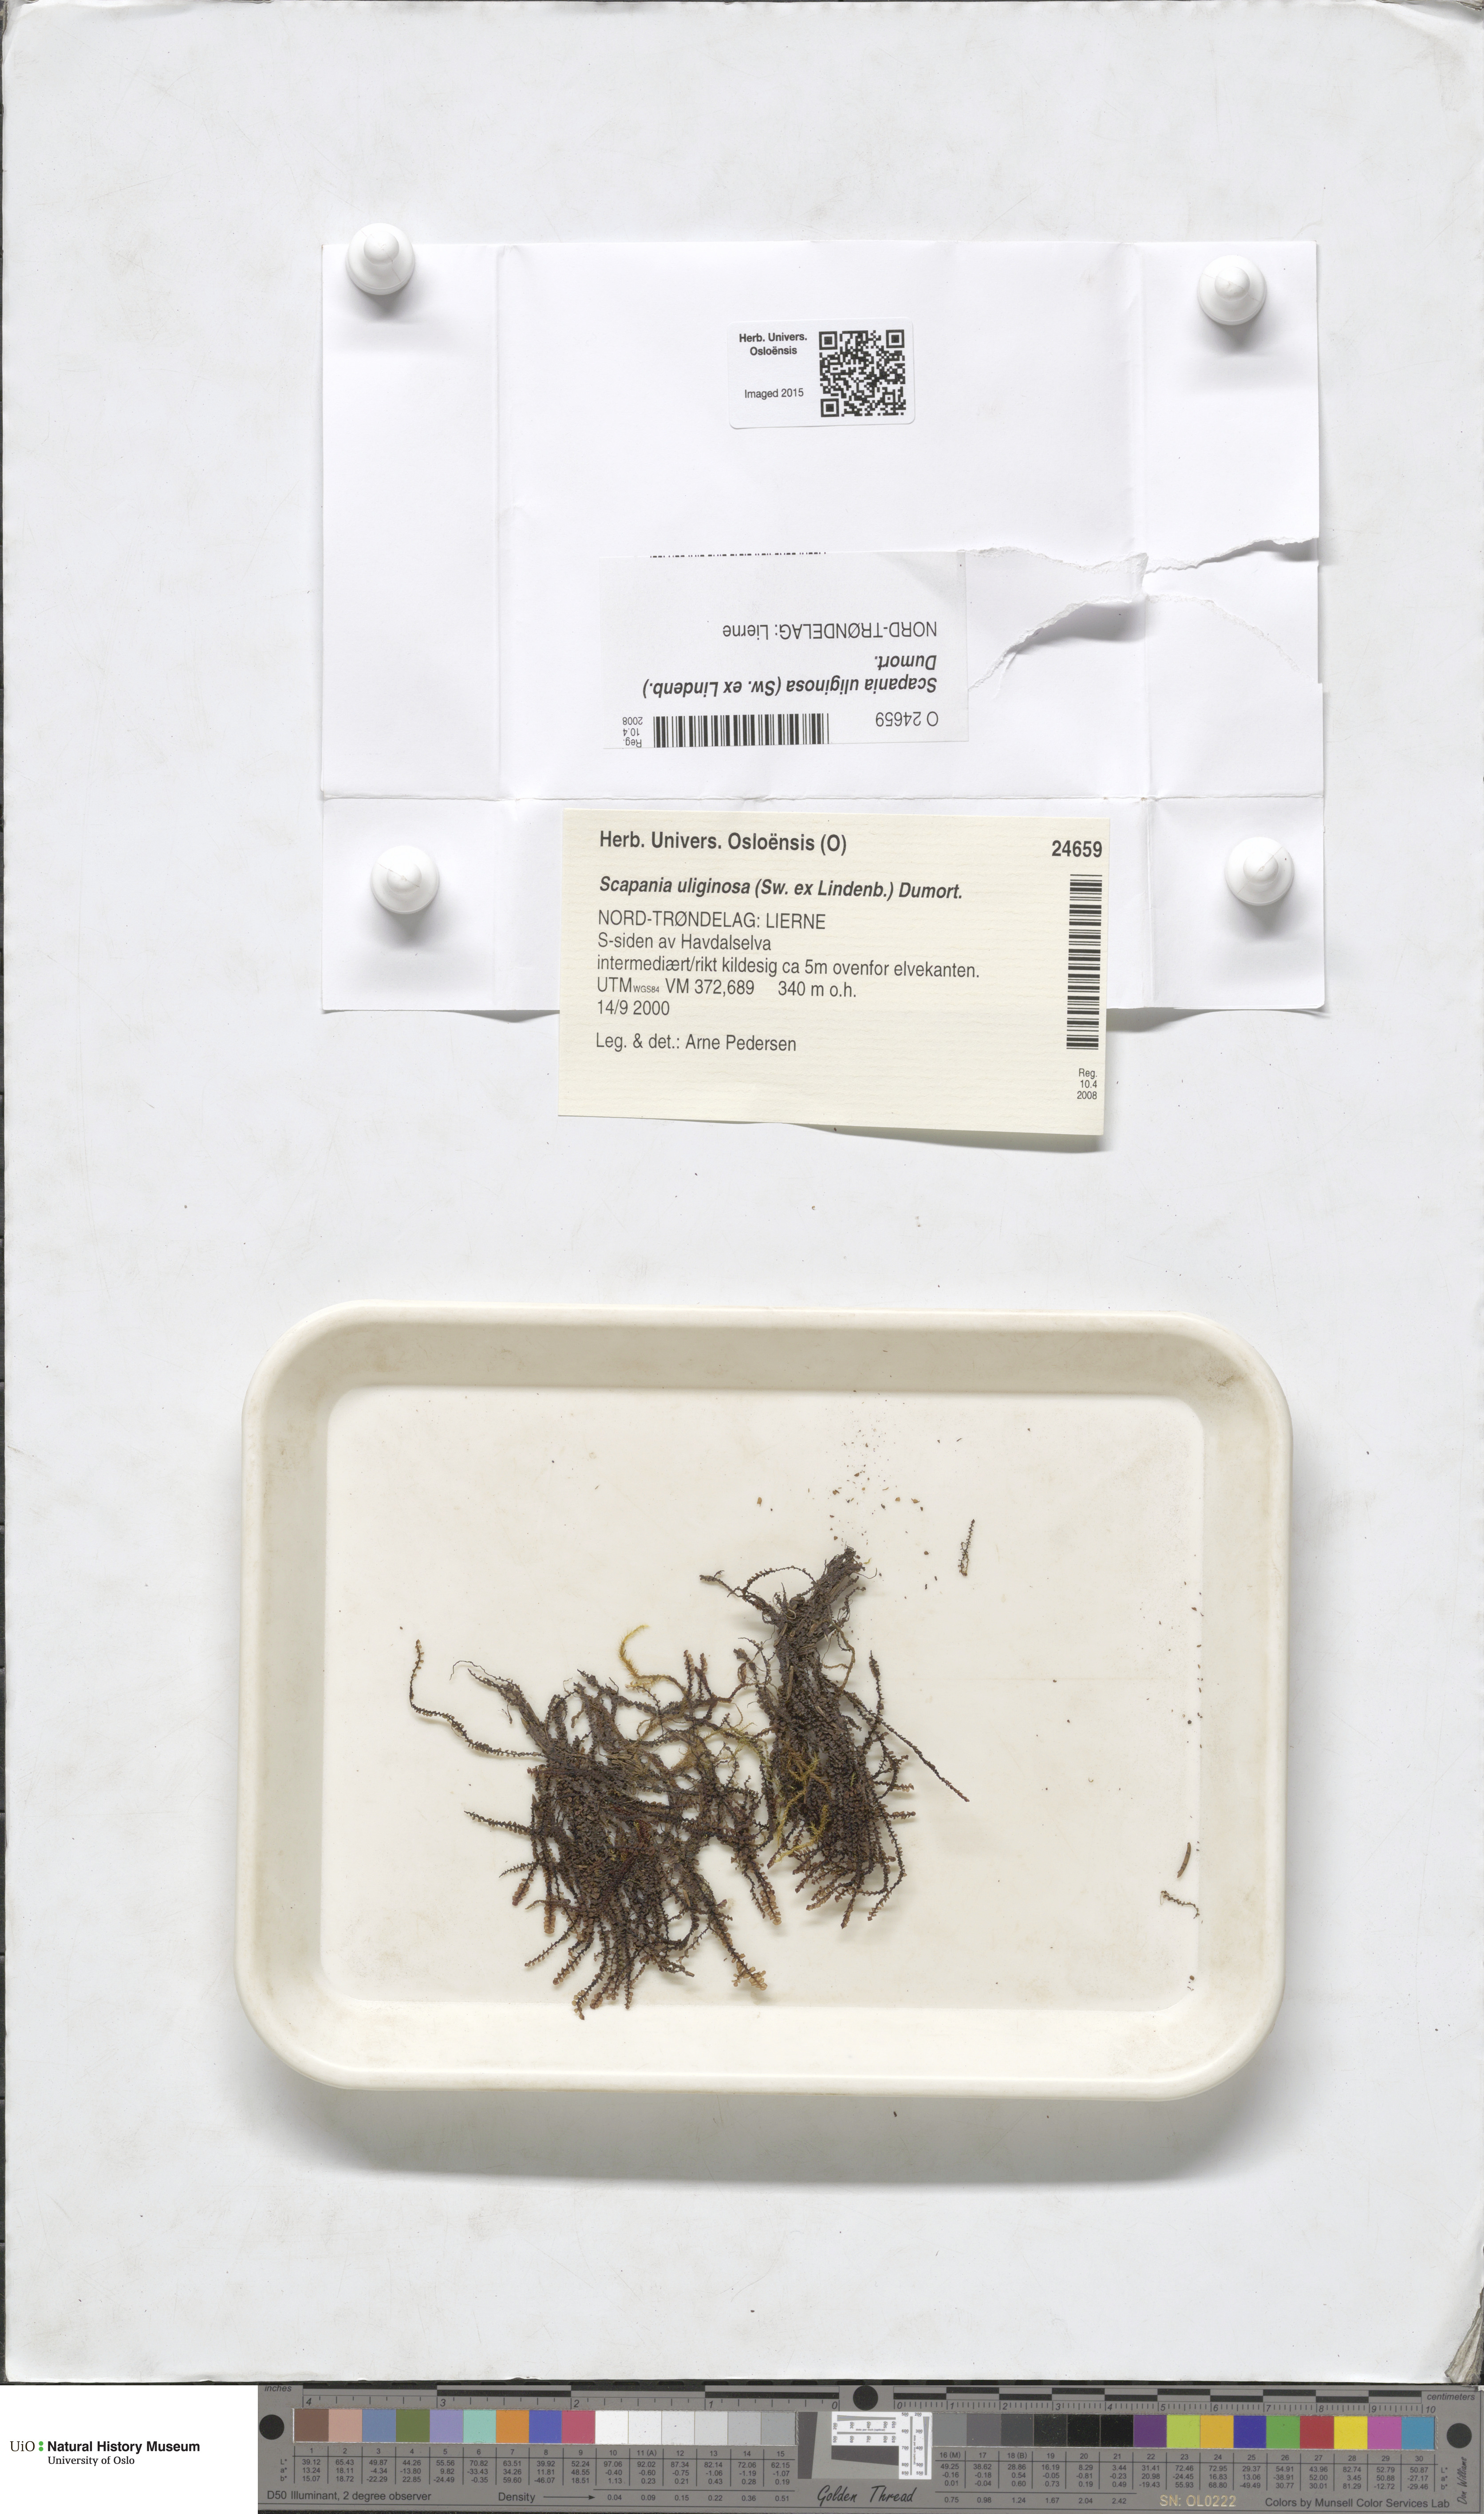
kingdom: Plantae
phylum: Marchantiophyta
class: Jungermanniopsida
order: Jungermanniales
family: Scapaniaceae
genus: Scapania
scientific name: Scapania uliginosa
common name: Marsh earwort
